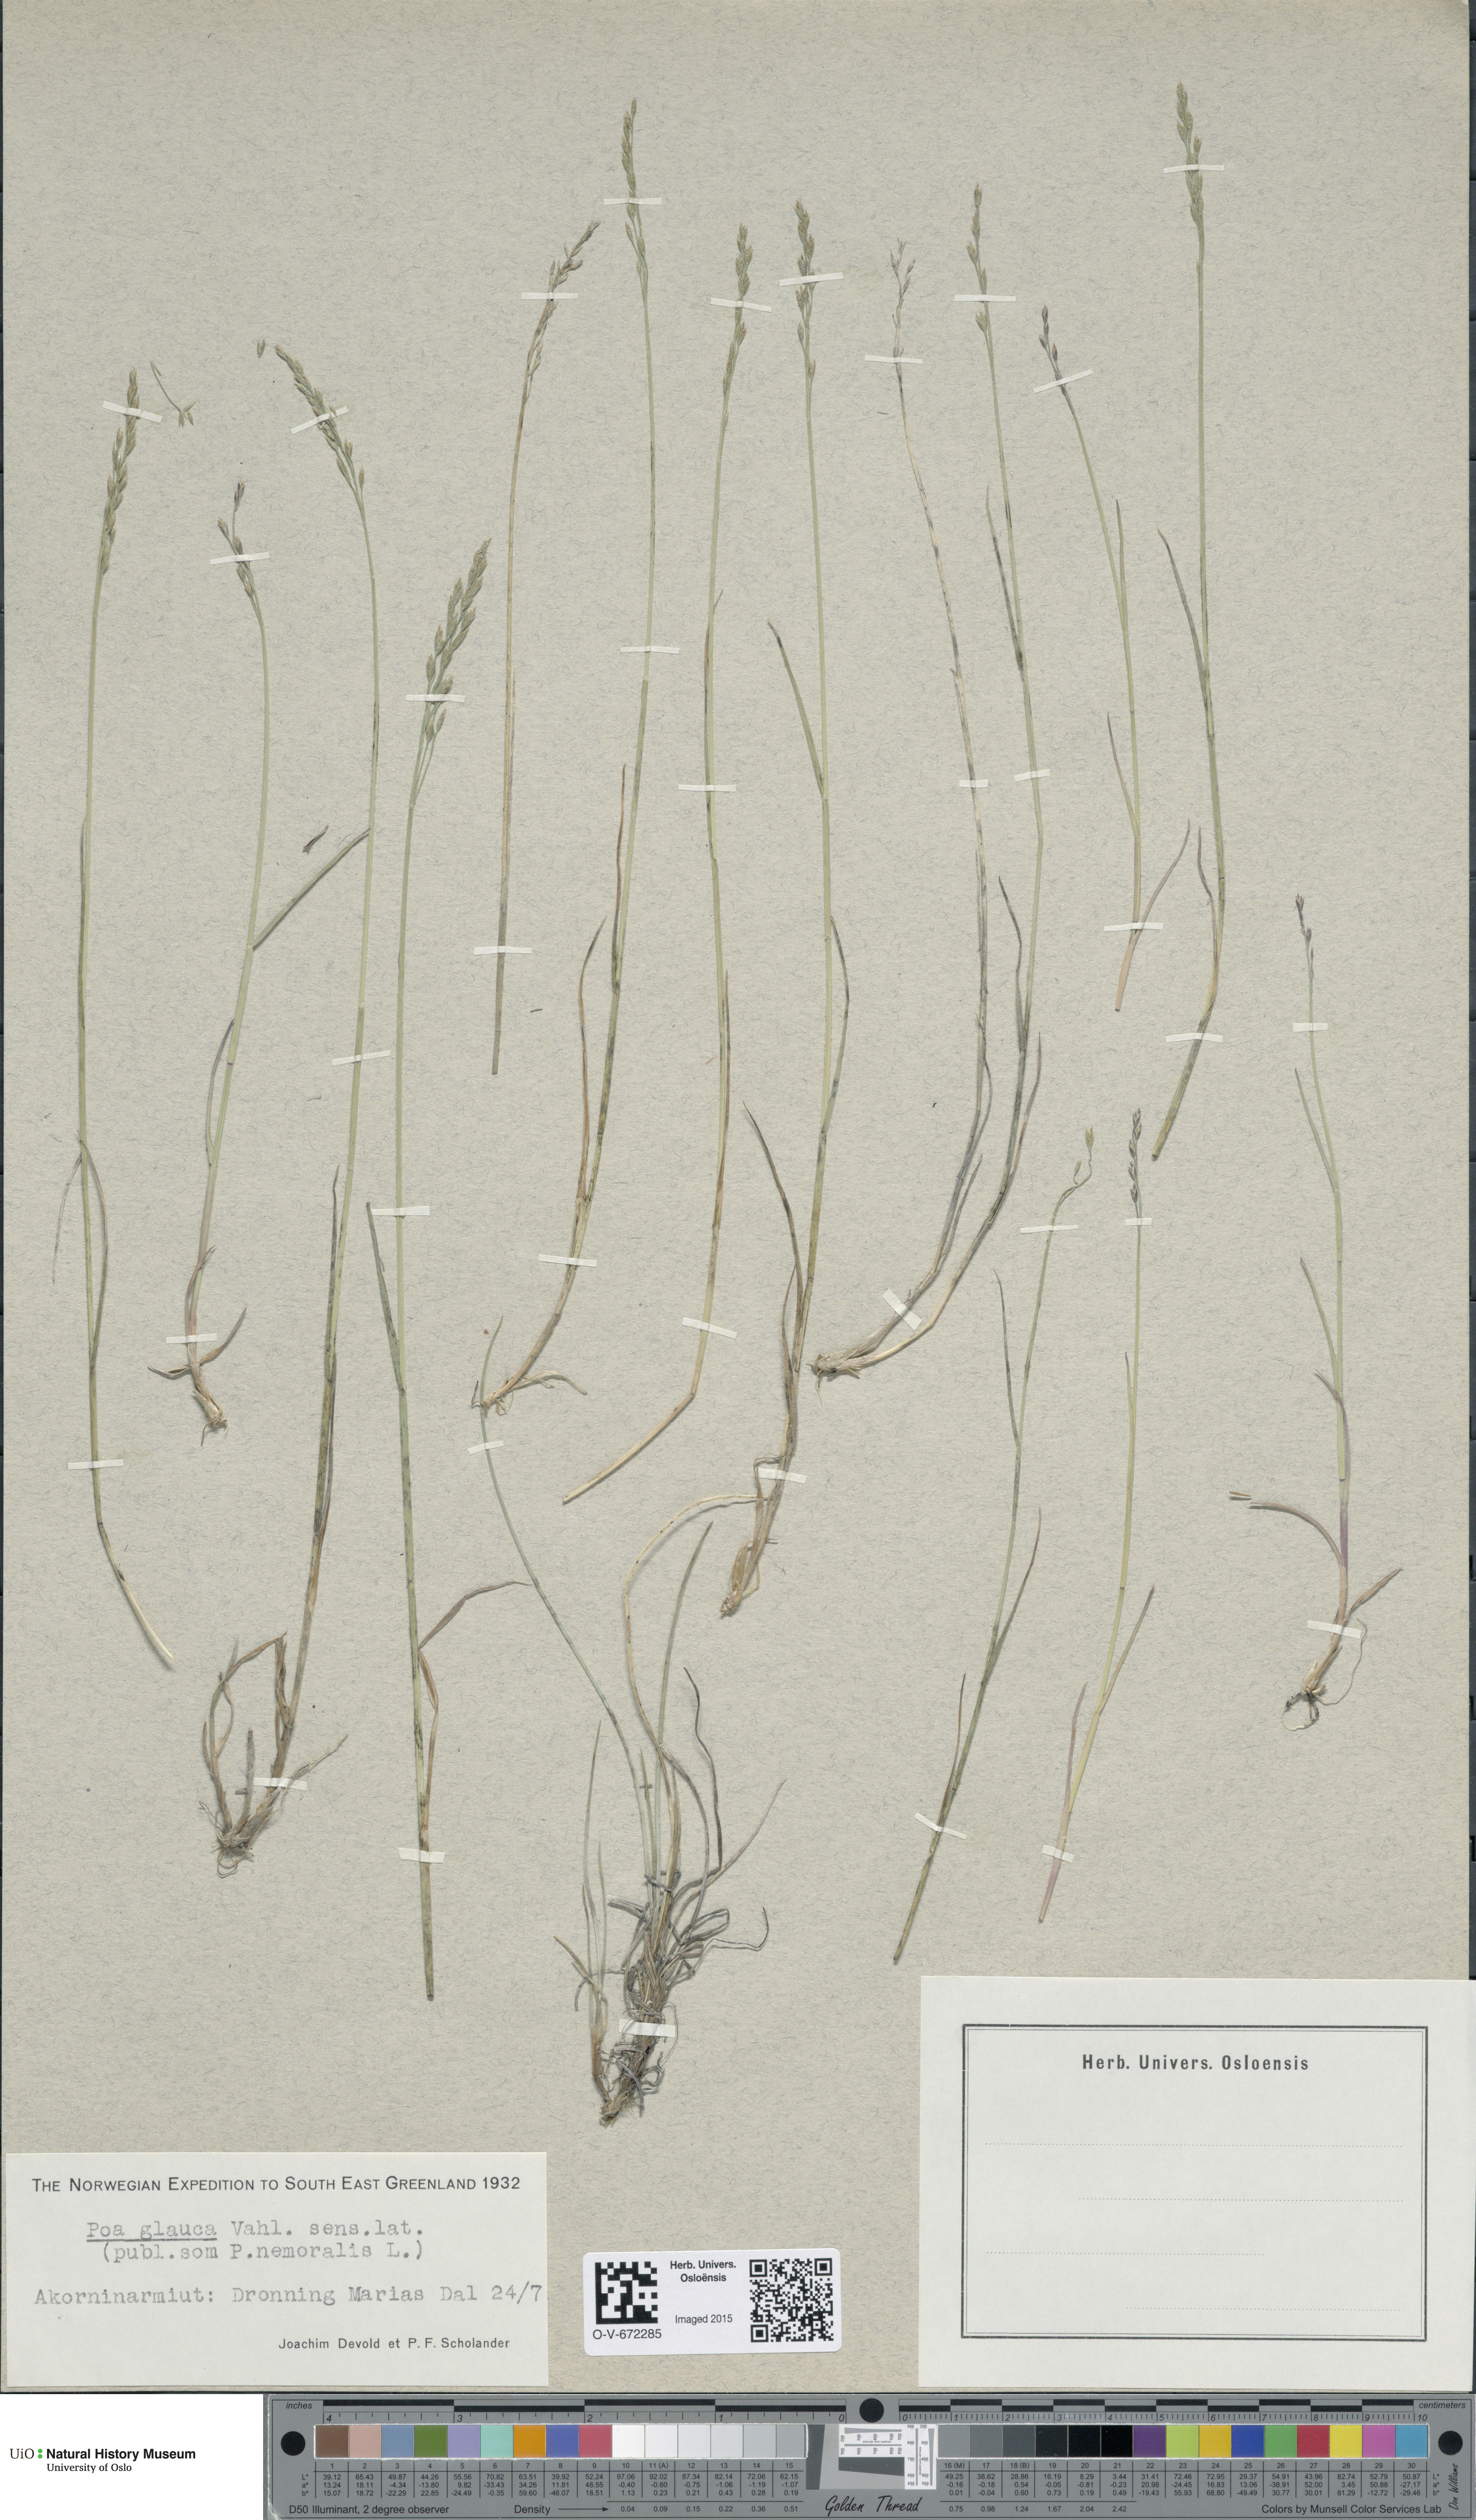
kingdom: Plantae
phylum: Tracheophyta
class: Liliopsida
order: Poales
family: Poaceae
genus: Poa
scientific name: Poa glauca
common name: Glaucous bluegrass
